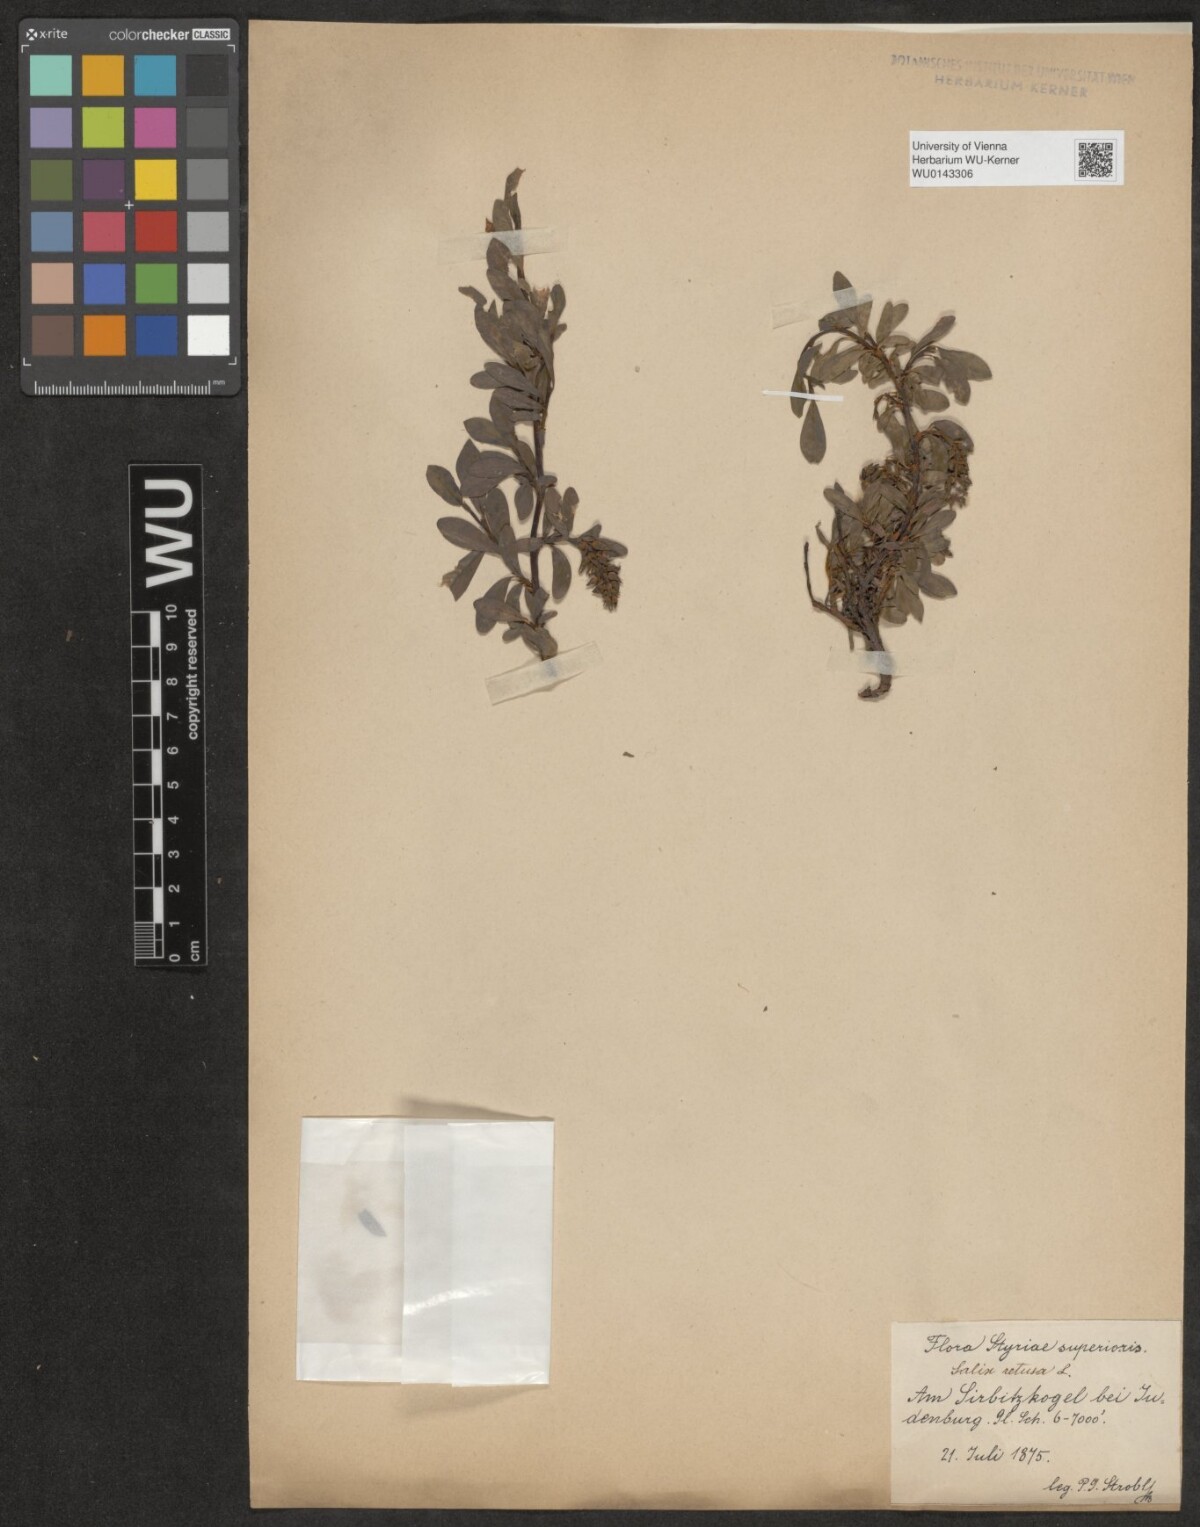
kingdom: Plantae
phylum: Tracheophyta
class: Magnoliopsida
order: Malpighiales
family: Salicaceae
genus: Salix
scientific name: Salix retusa
